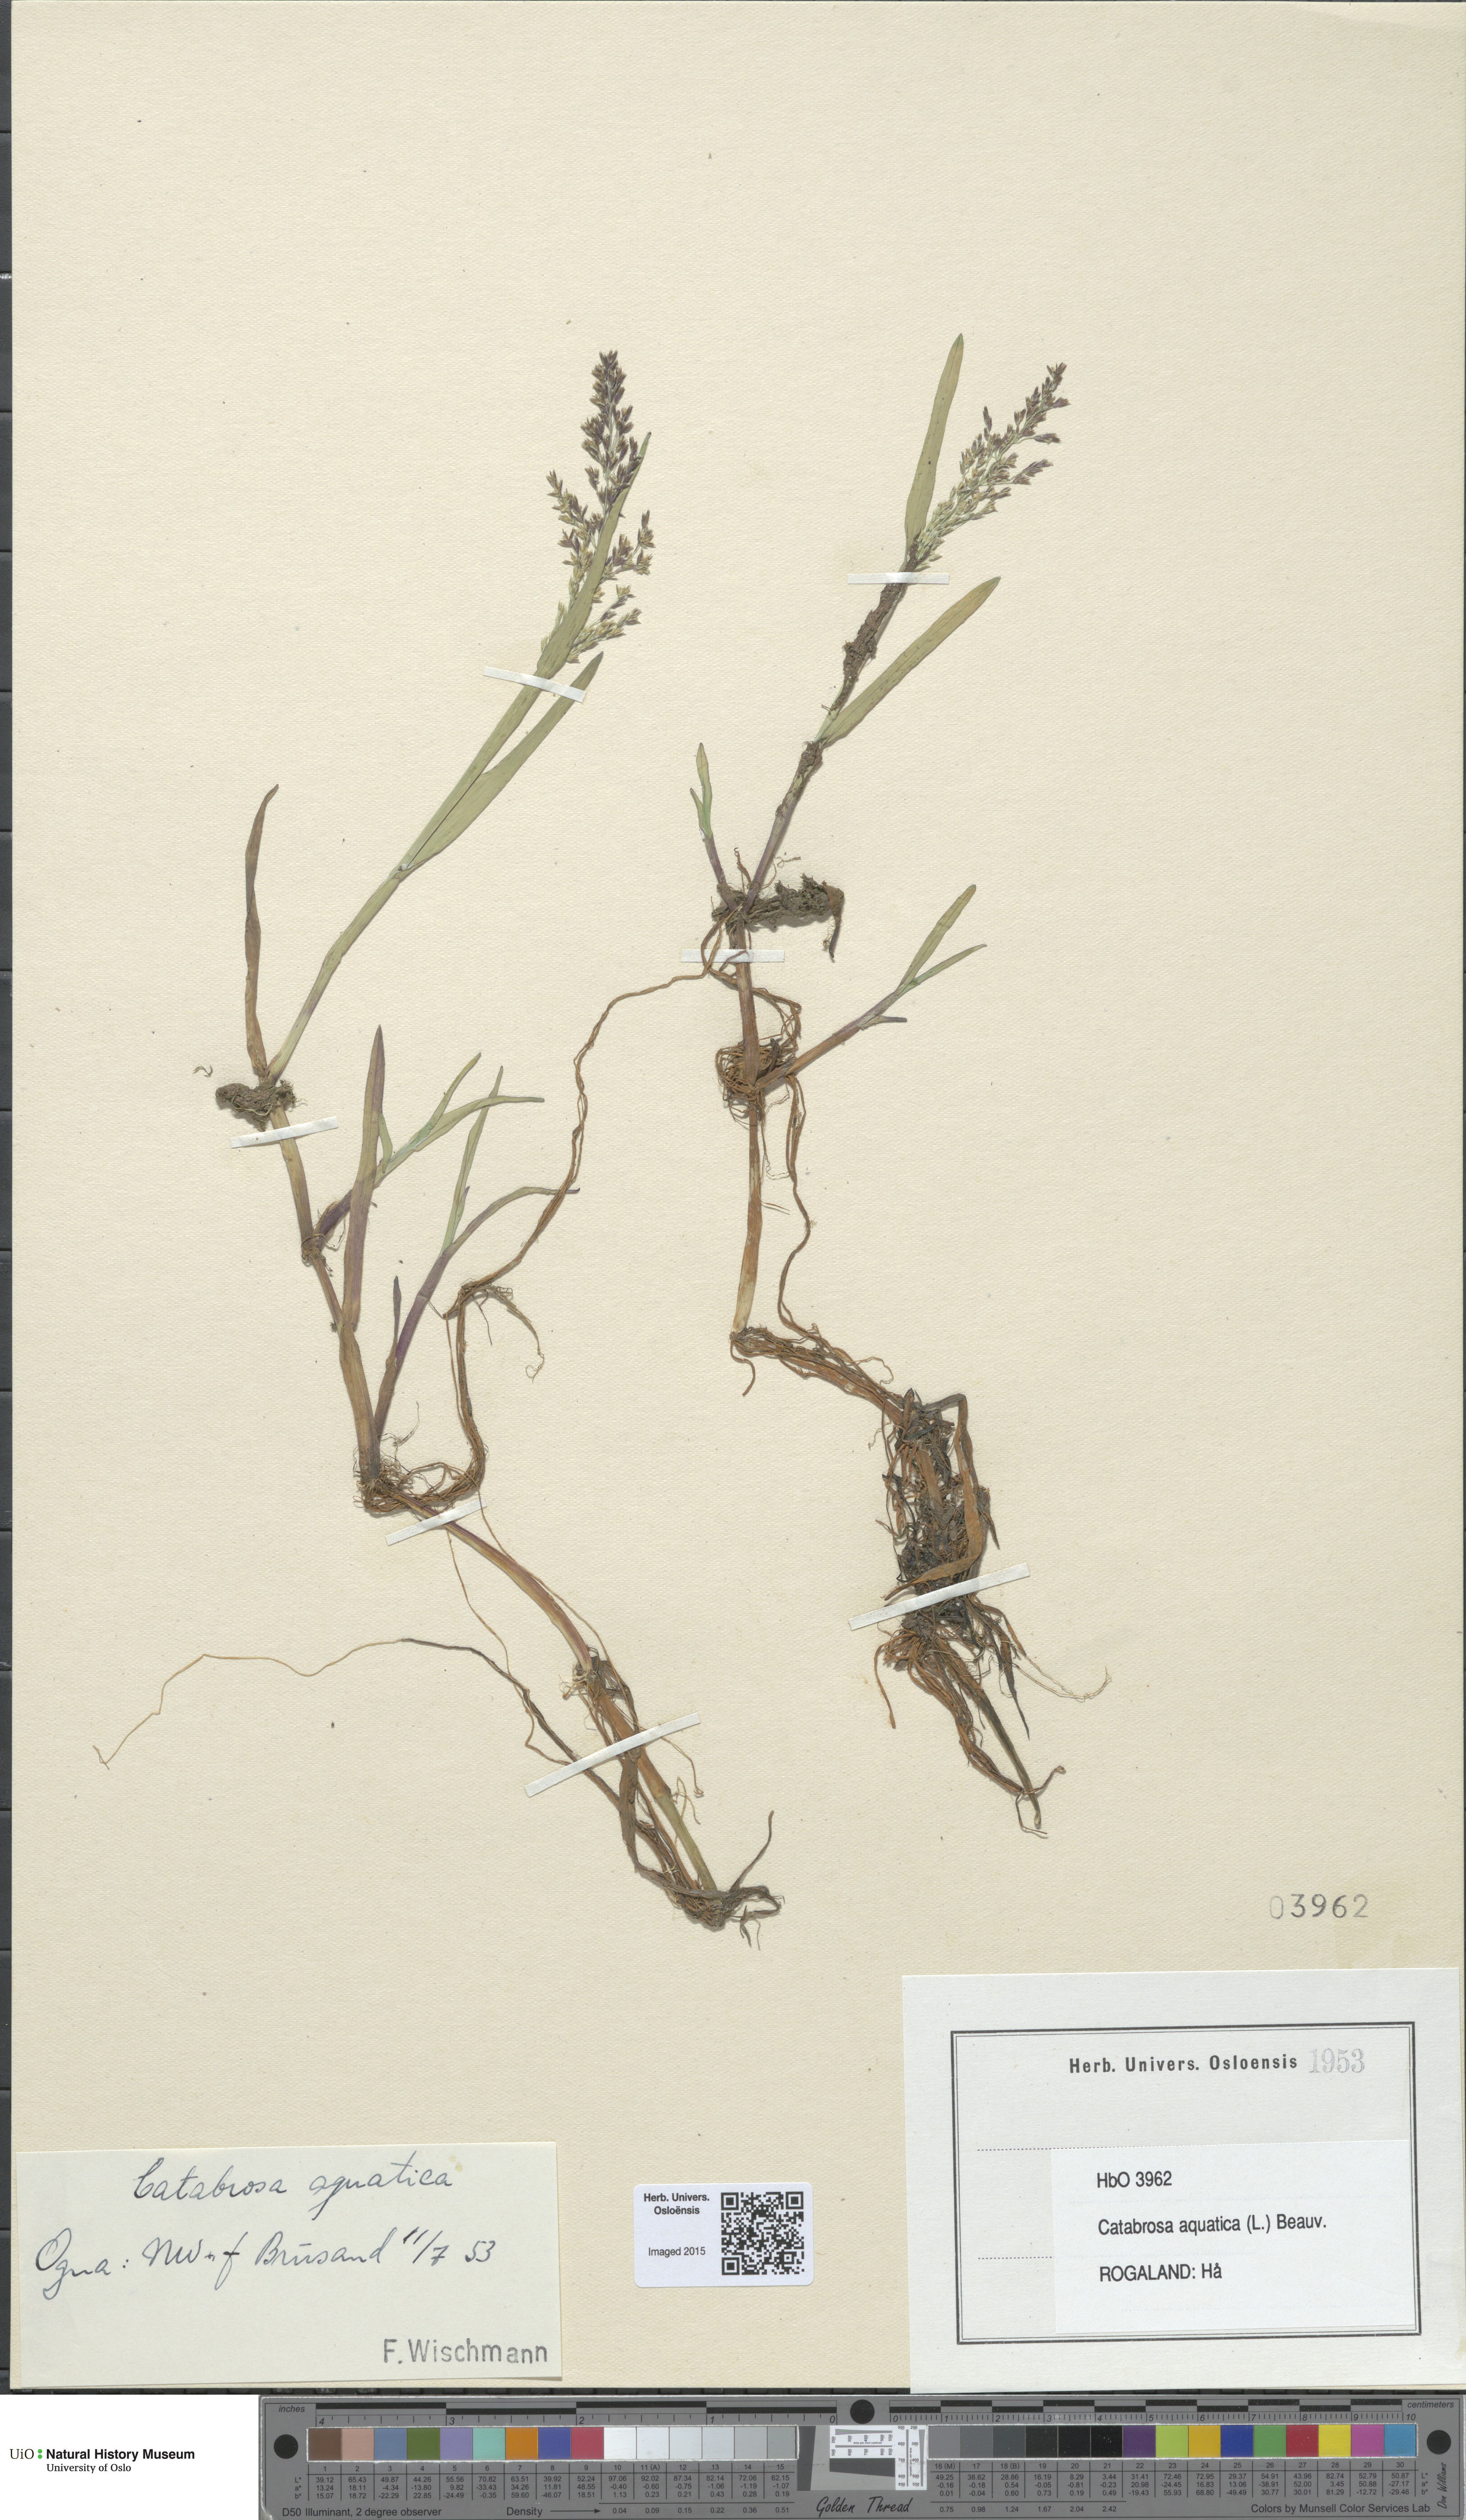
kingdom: Plantae
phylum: Tracheophyta
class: Liliopsida
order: Poales
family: Poaceae
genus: Catabrosa
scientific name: Catabrosa aquatica
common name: Whorl-grass
